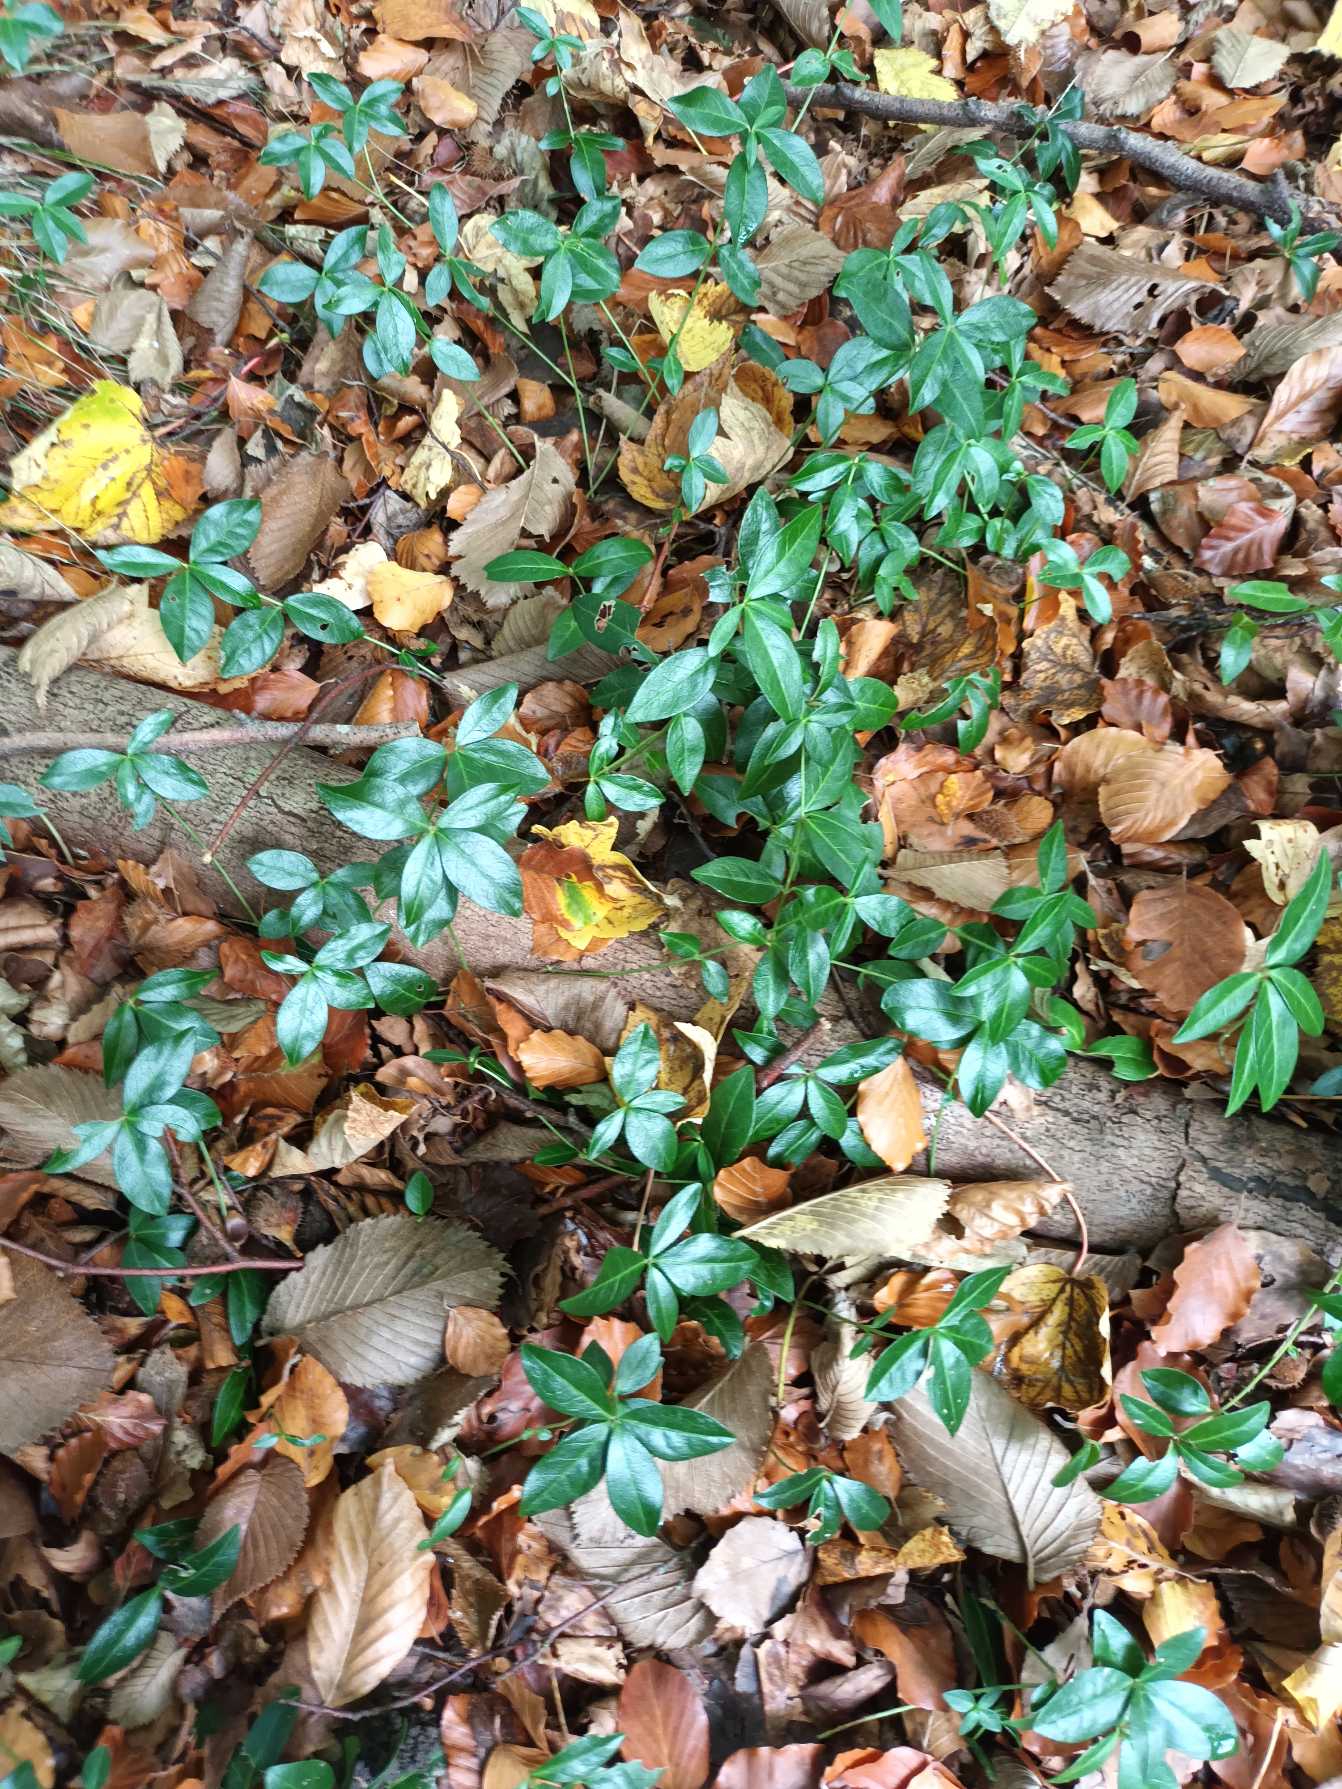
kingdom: Plantae
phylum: Tracheophyta
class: Magnoliopsida
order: Gentianales
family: Apocynaceae
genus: Vinca
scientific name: Vinca minor
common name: Liden singrøn
